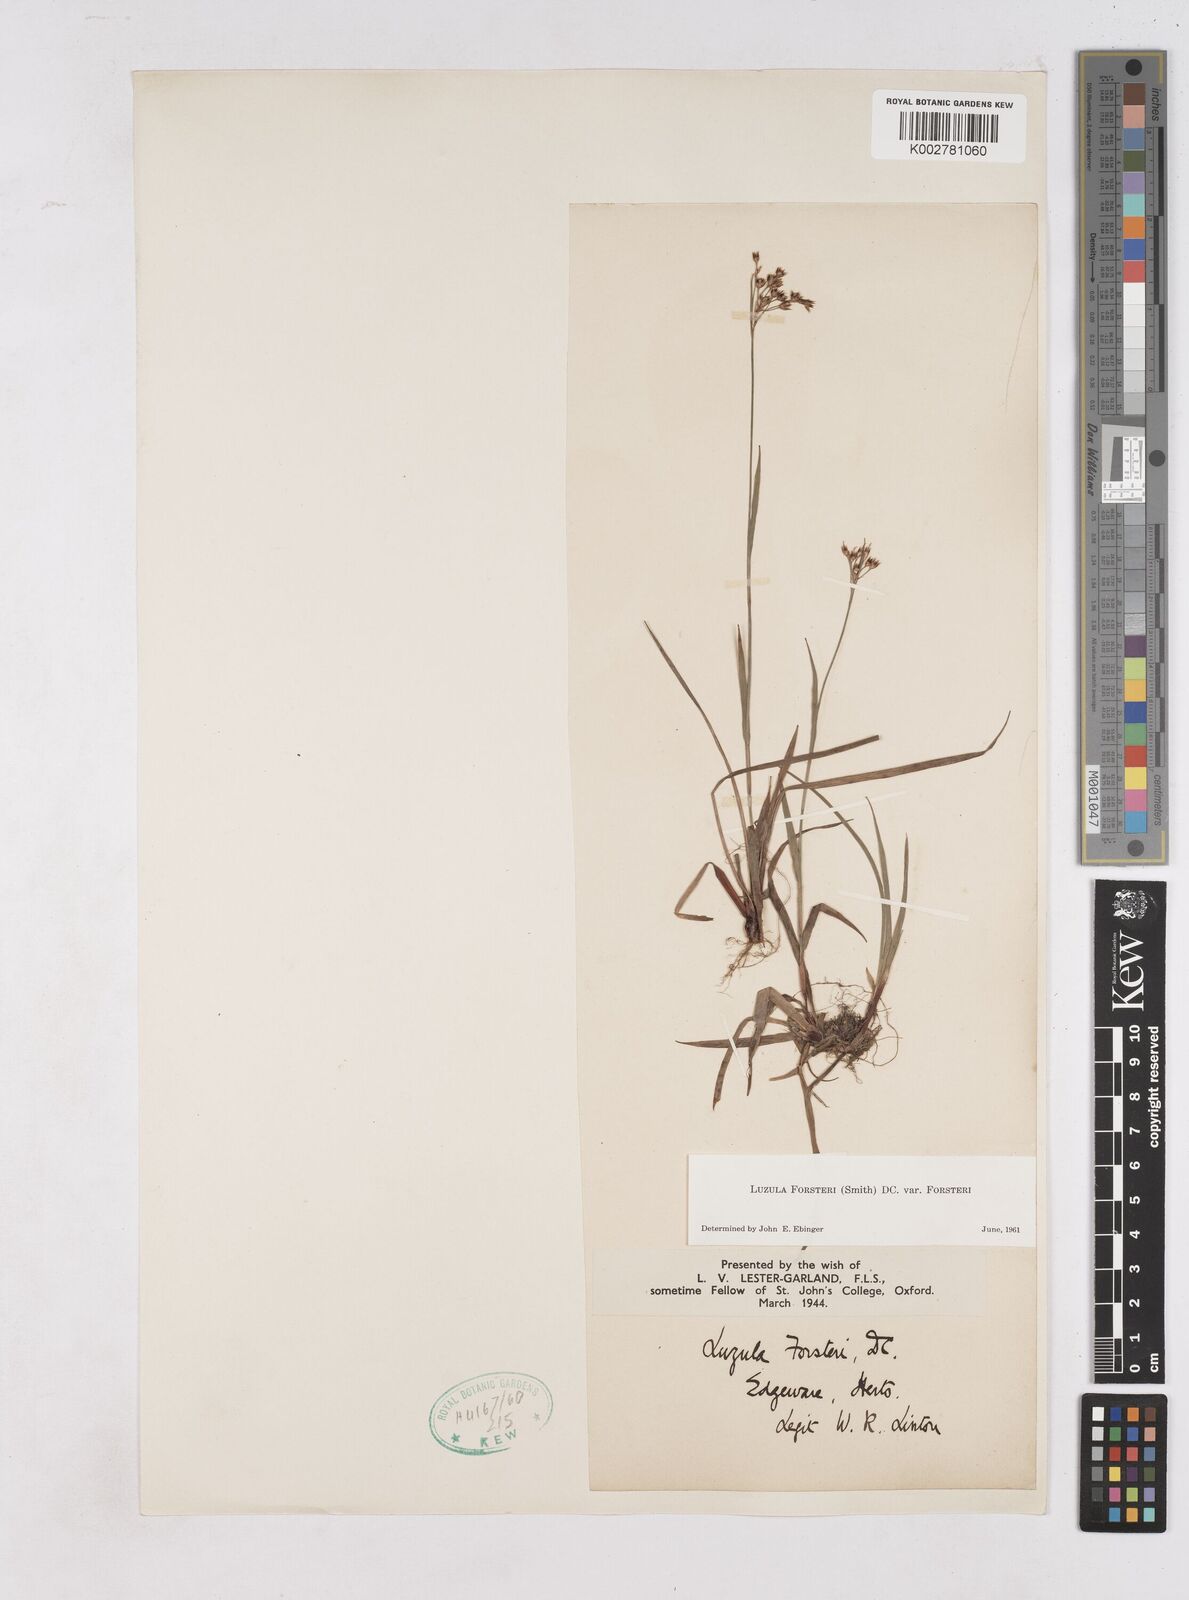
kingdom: Plantae
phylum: Tracheophyta
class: Liliopsida
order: Poales
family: Juncaceae
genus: Luzula
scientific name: Luzula forsteri
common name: Southern wood-rush
